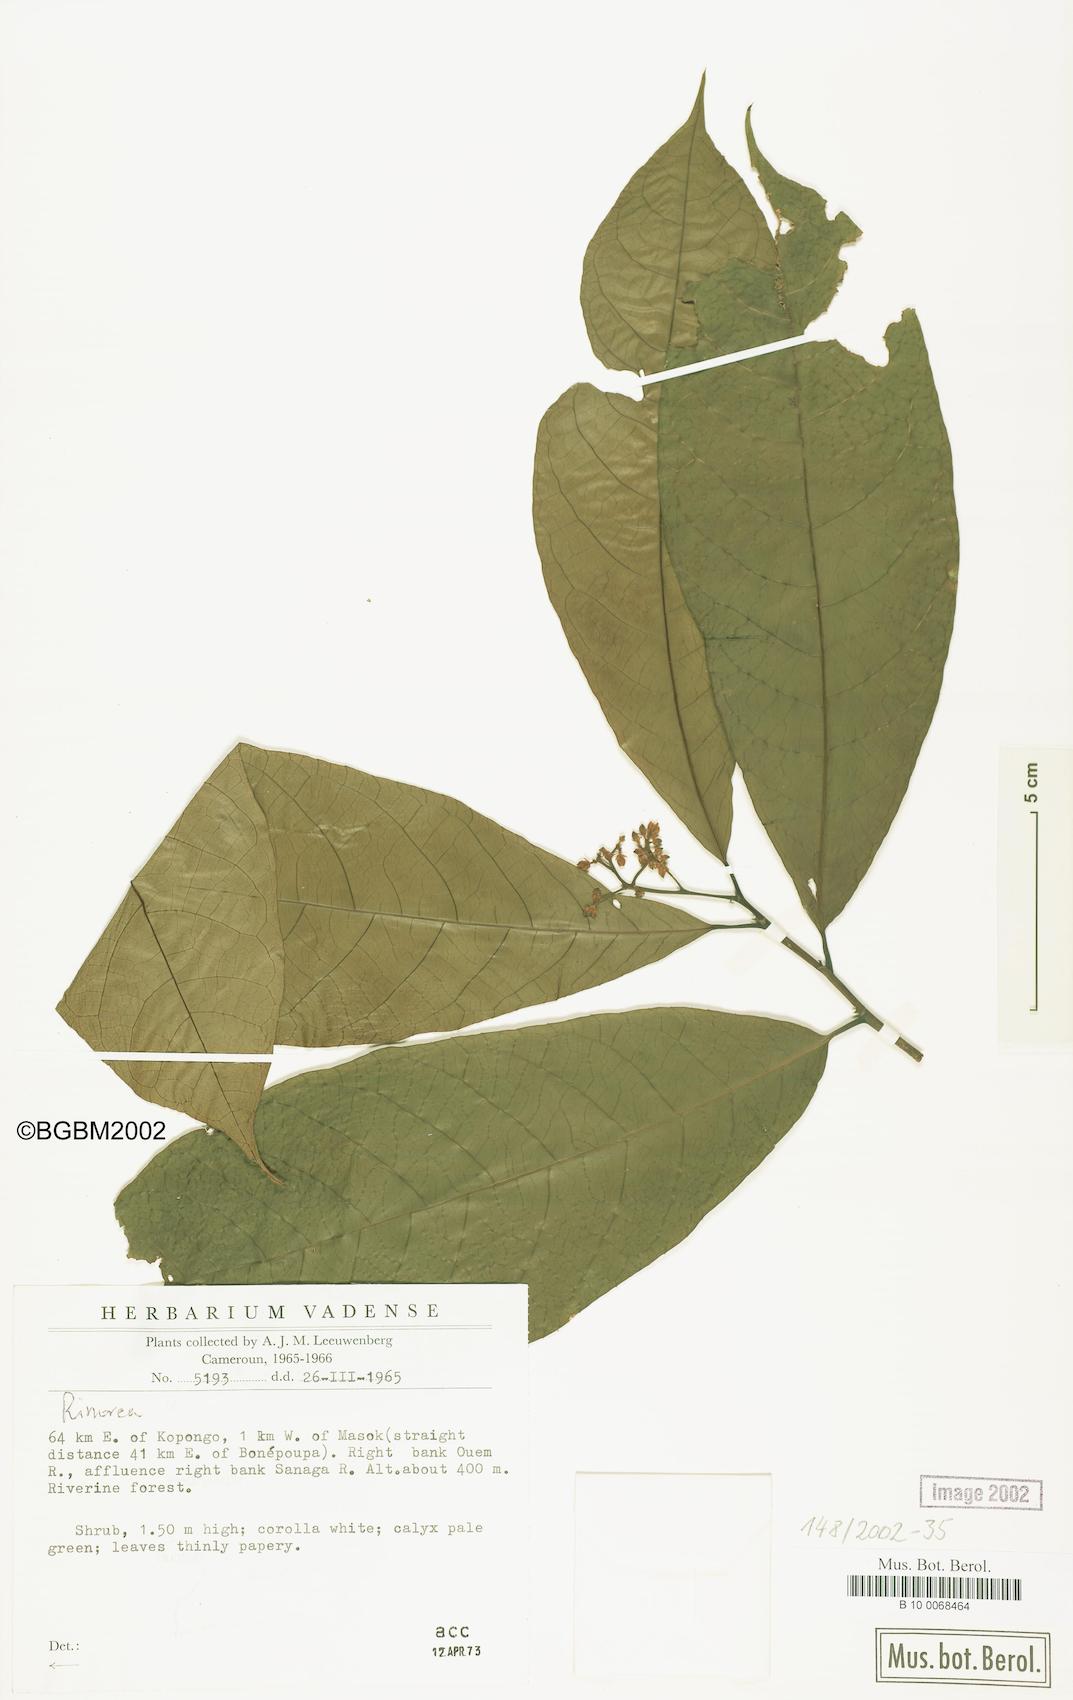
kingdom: Plantae
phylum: Tracheophyta
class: Magnoliopsida
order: Malpighiales
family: Violaceae
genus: Rinorea
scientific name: Rinorea
